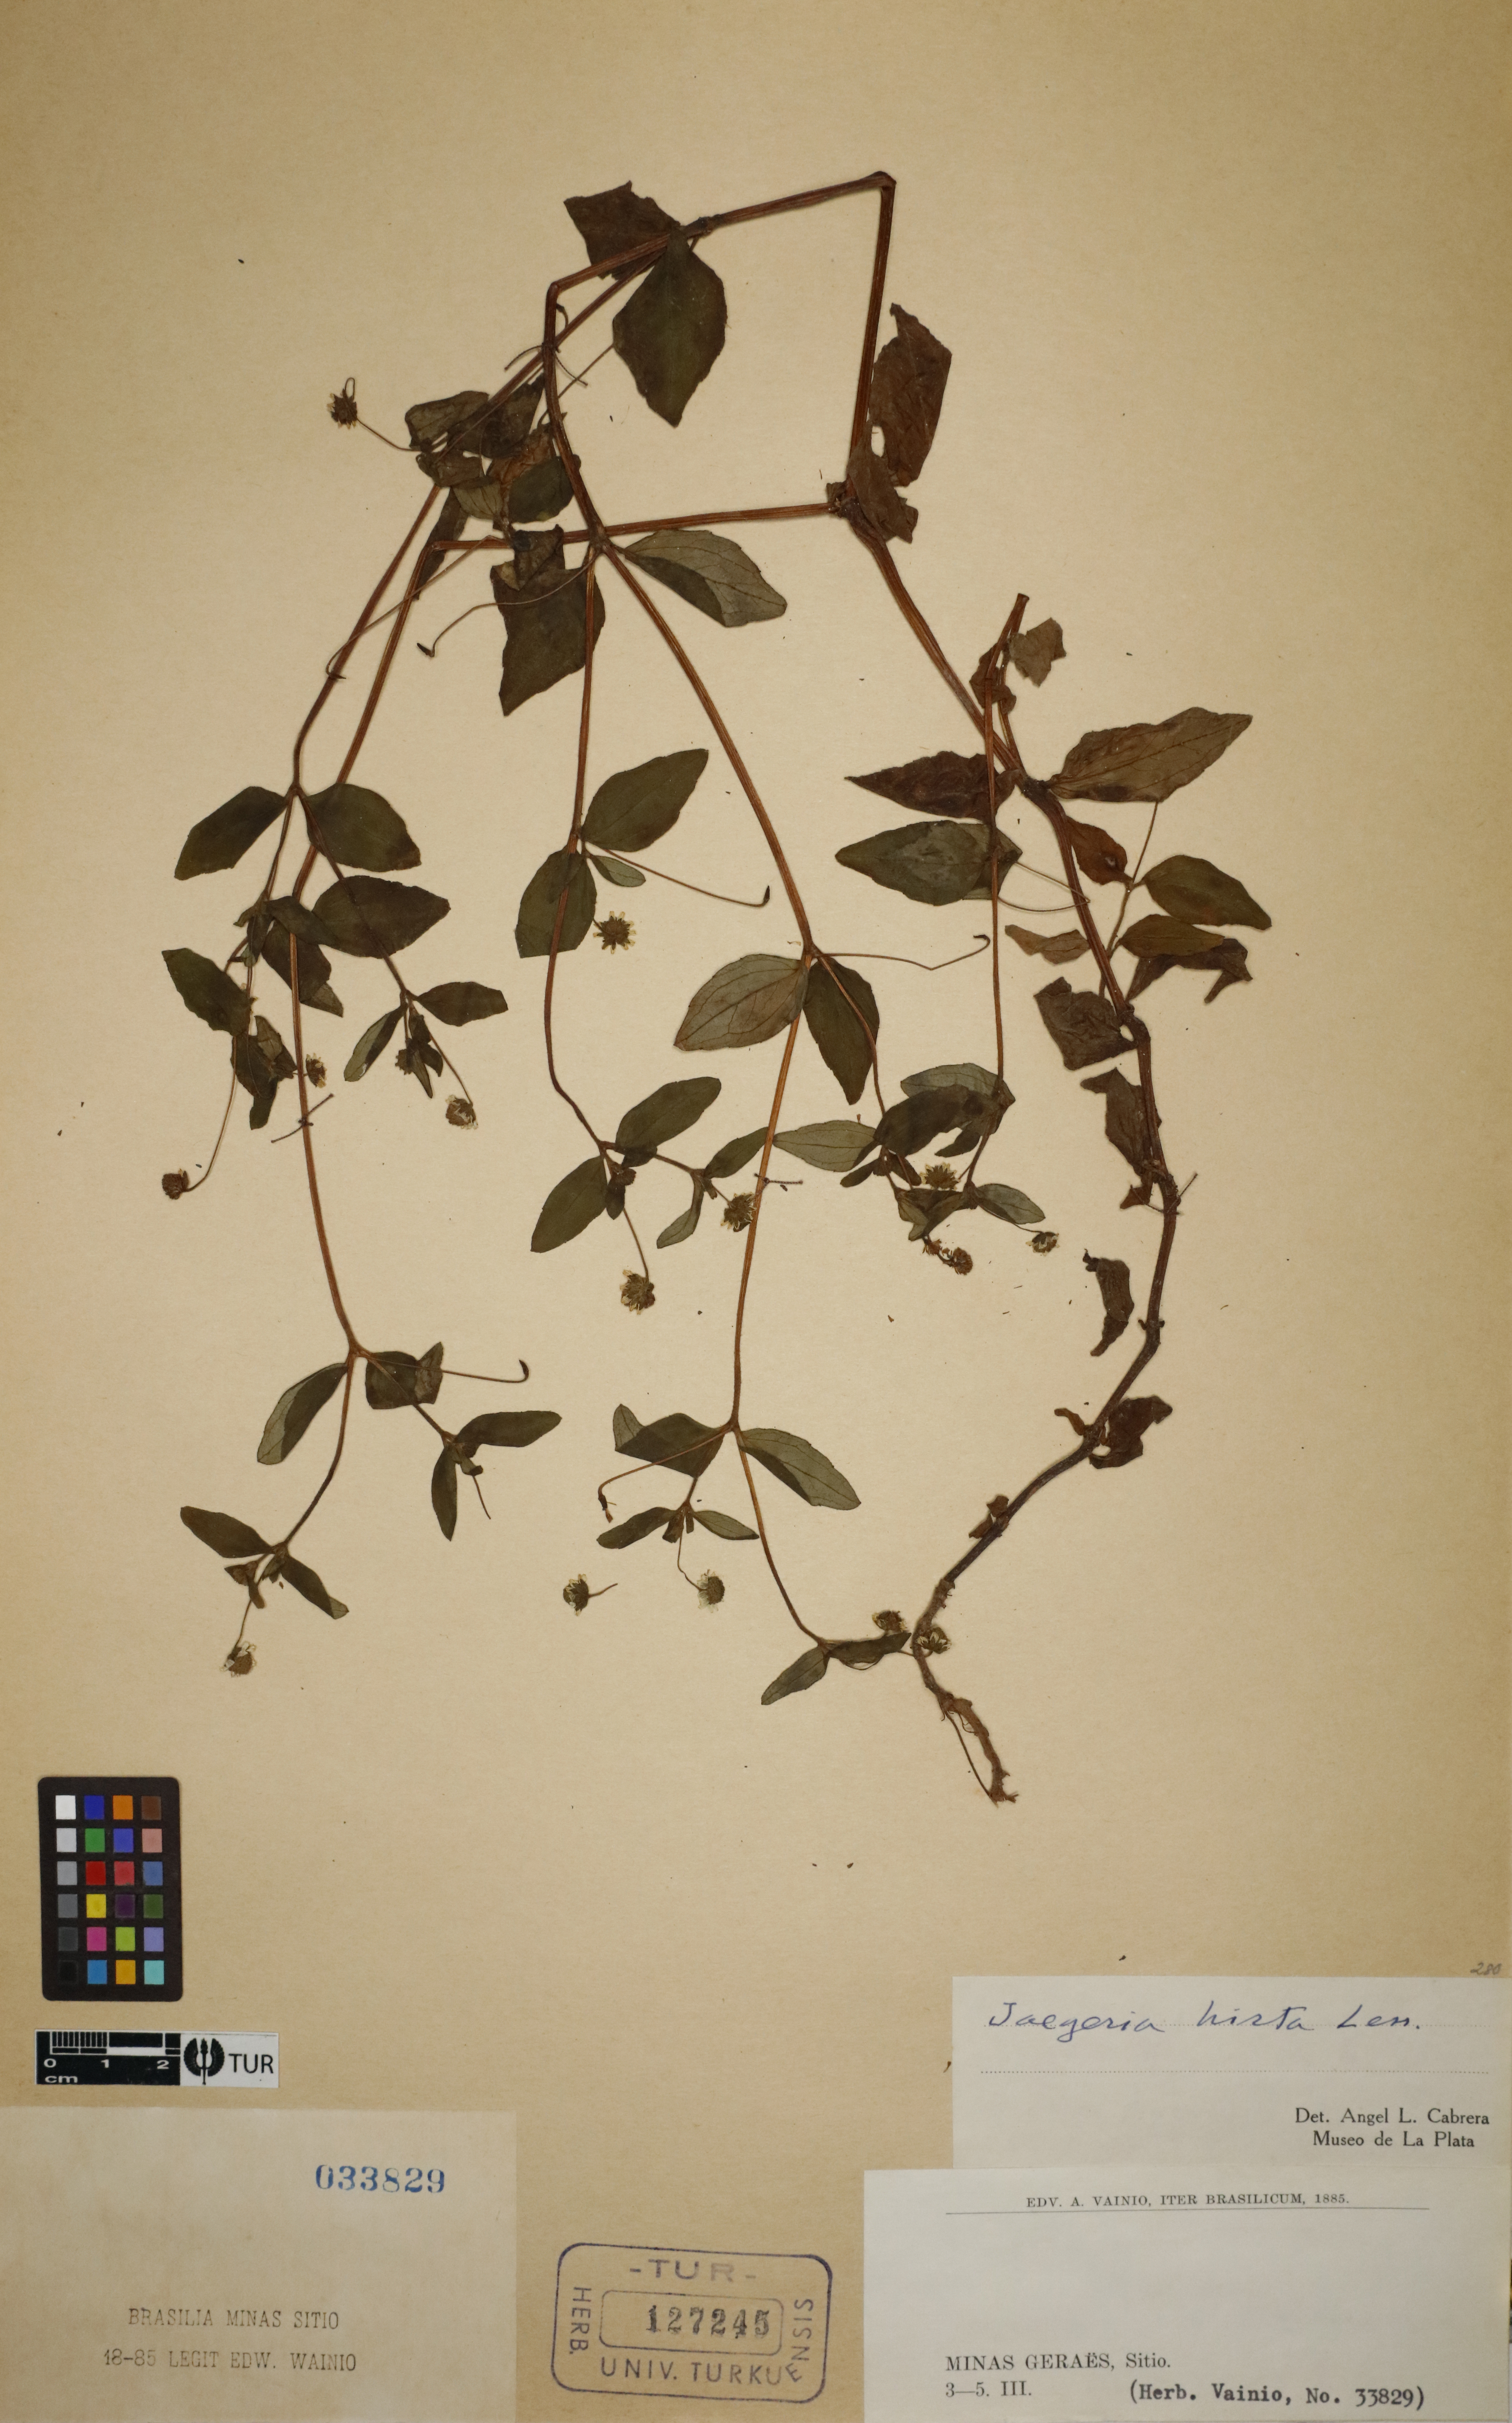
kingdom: Plantae
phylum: Tracheophyta
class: Magnoliopsida
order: Asterales
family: Asteraceae
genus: Jaegeria
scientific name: Jaegeria hirta
